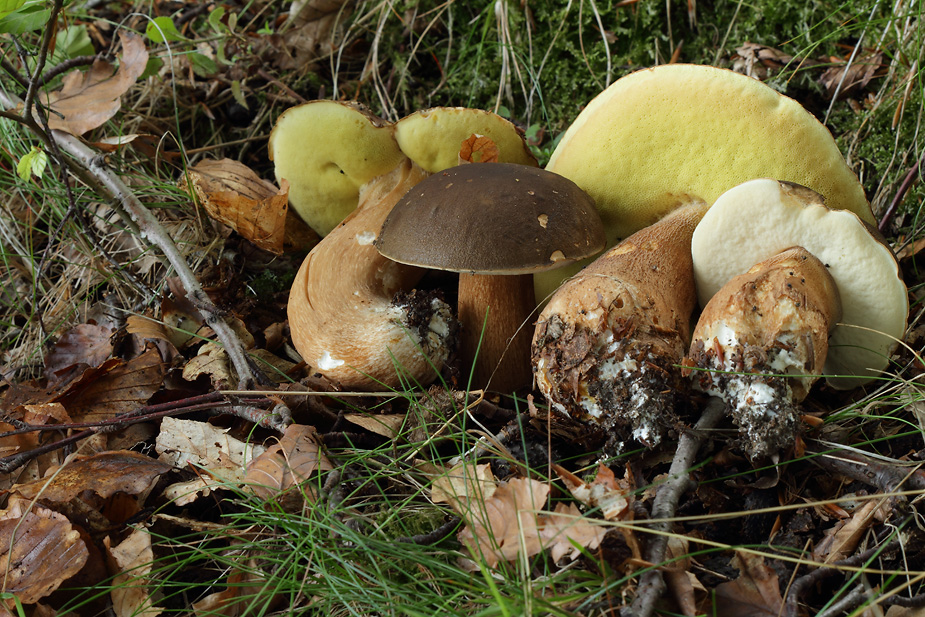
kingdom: Fungi
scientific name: Fungi
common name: bronze-rørhat
